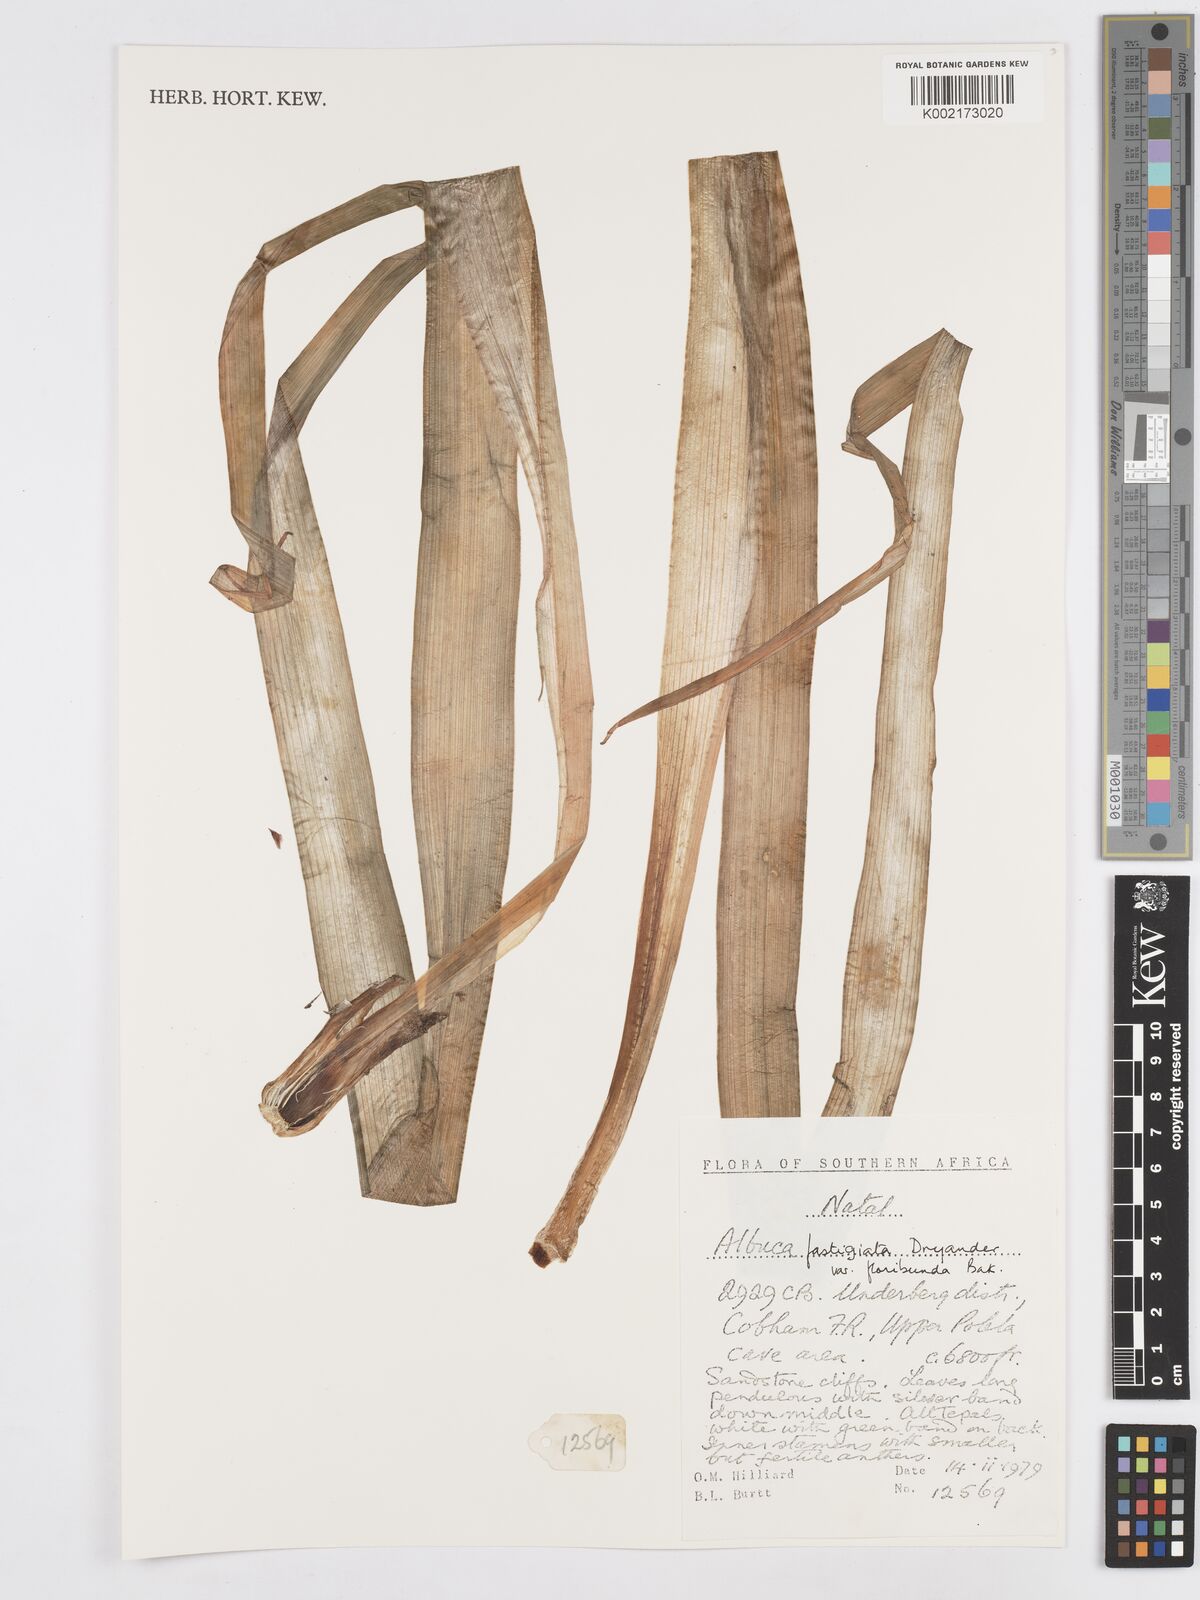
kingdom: Plantae
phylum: Tracheophyta
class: Liliopsida
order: Asparagales
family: Asparagaceae
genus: Albuca
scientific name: Albuca tortuosa
